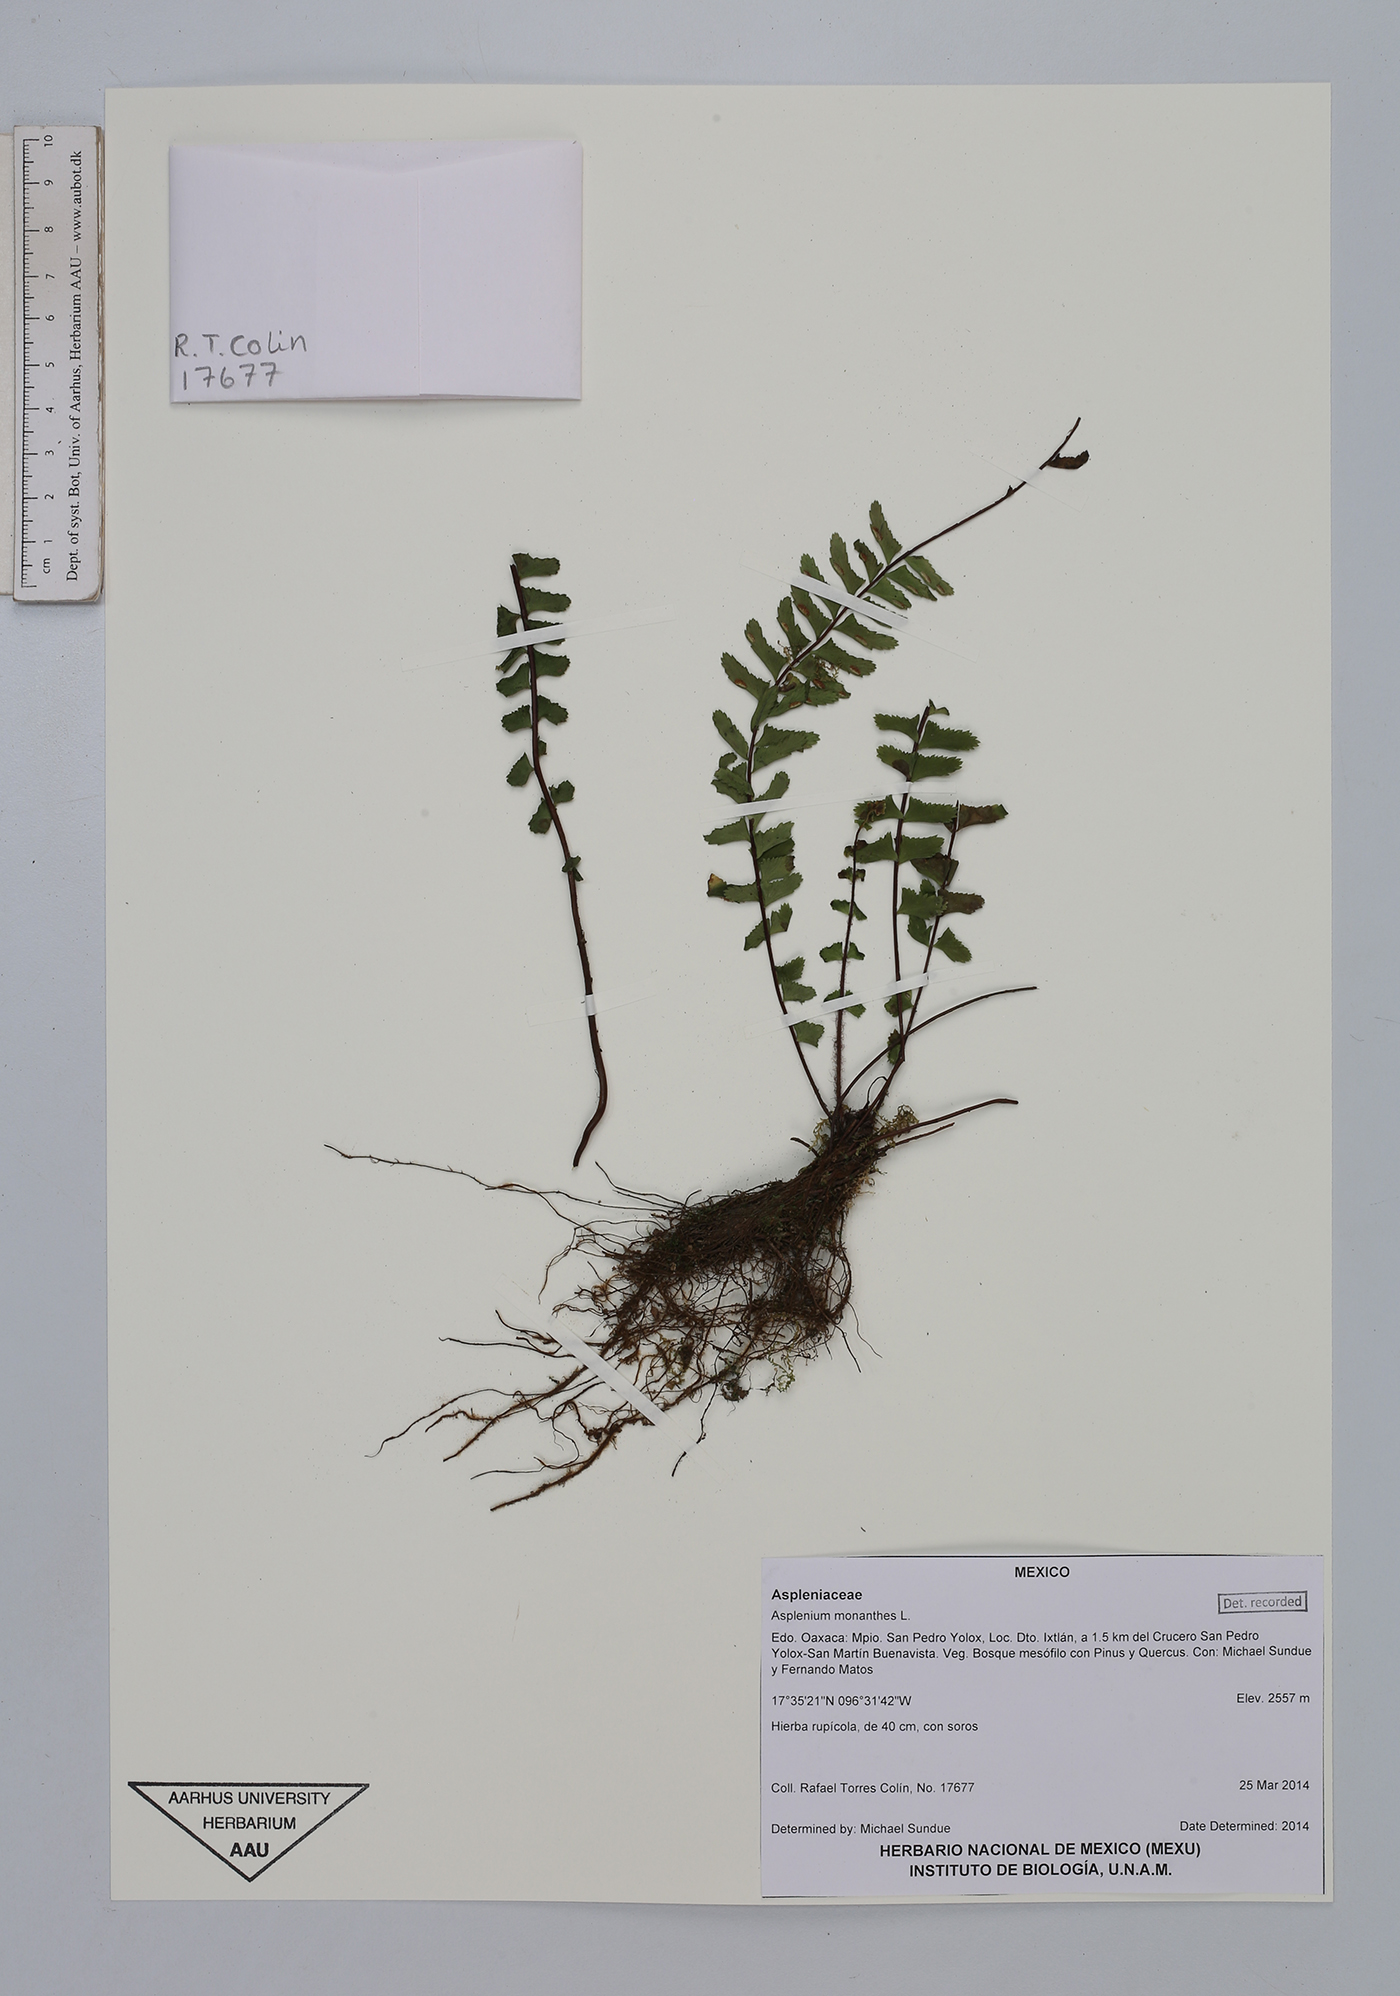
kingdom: Plantae
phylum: Tracheophyta
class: Polypodiopsida
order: Polypodiales
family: Aspleniaceae
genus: Asplenium
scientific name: Asplenium monanthes
